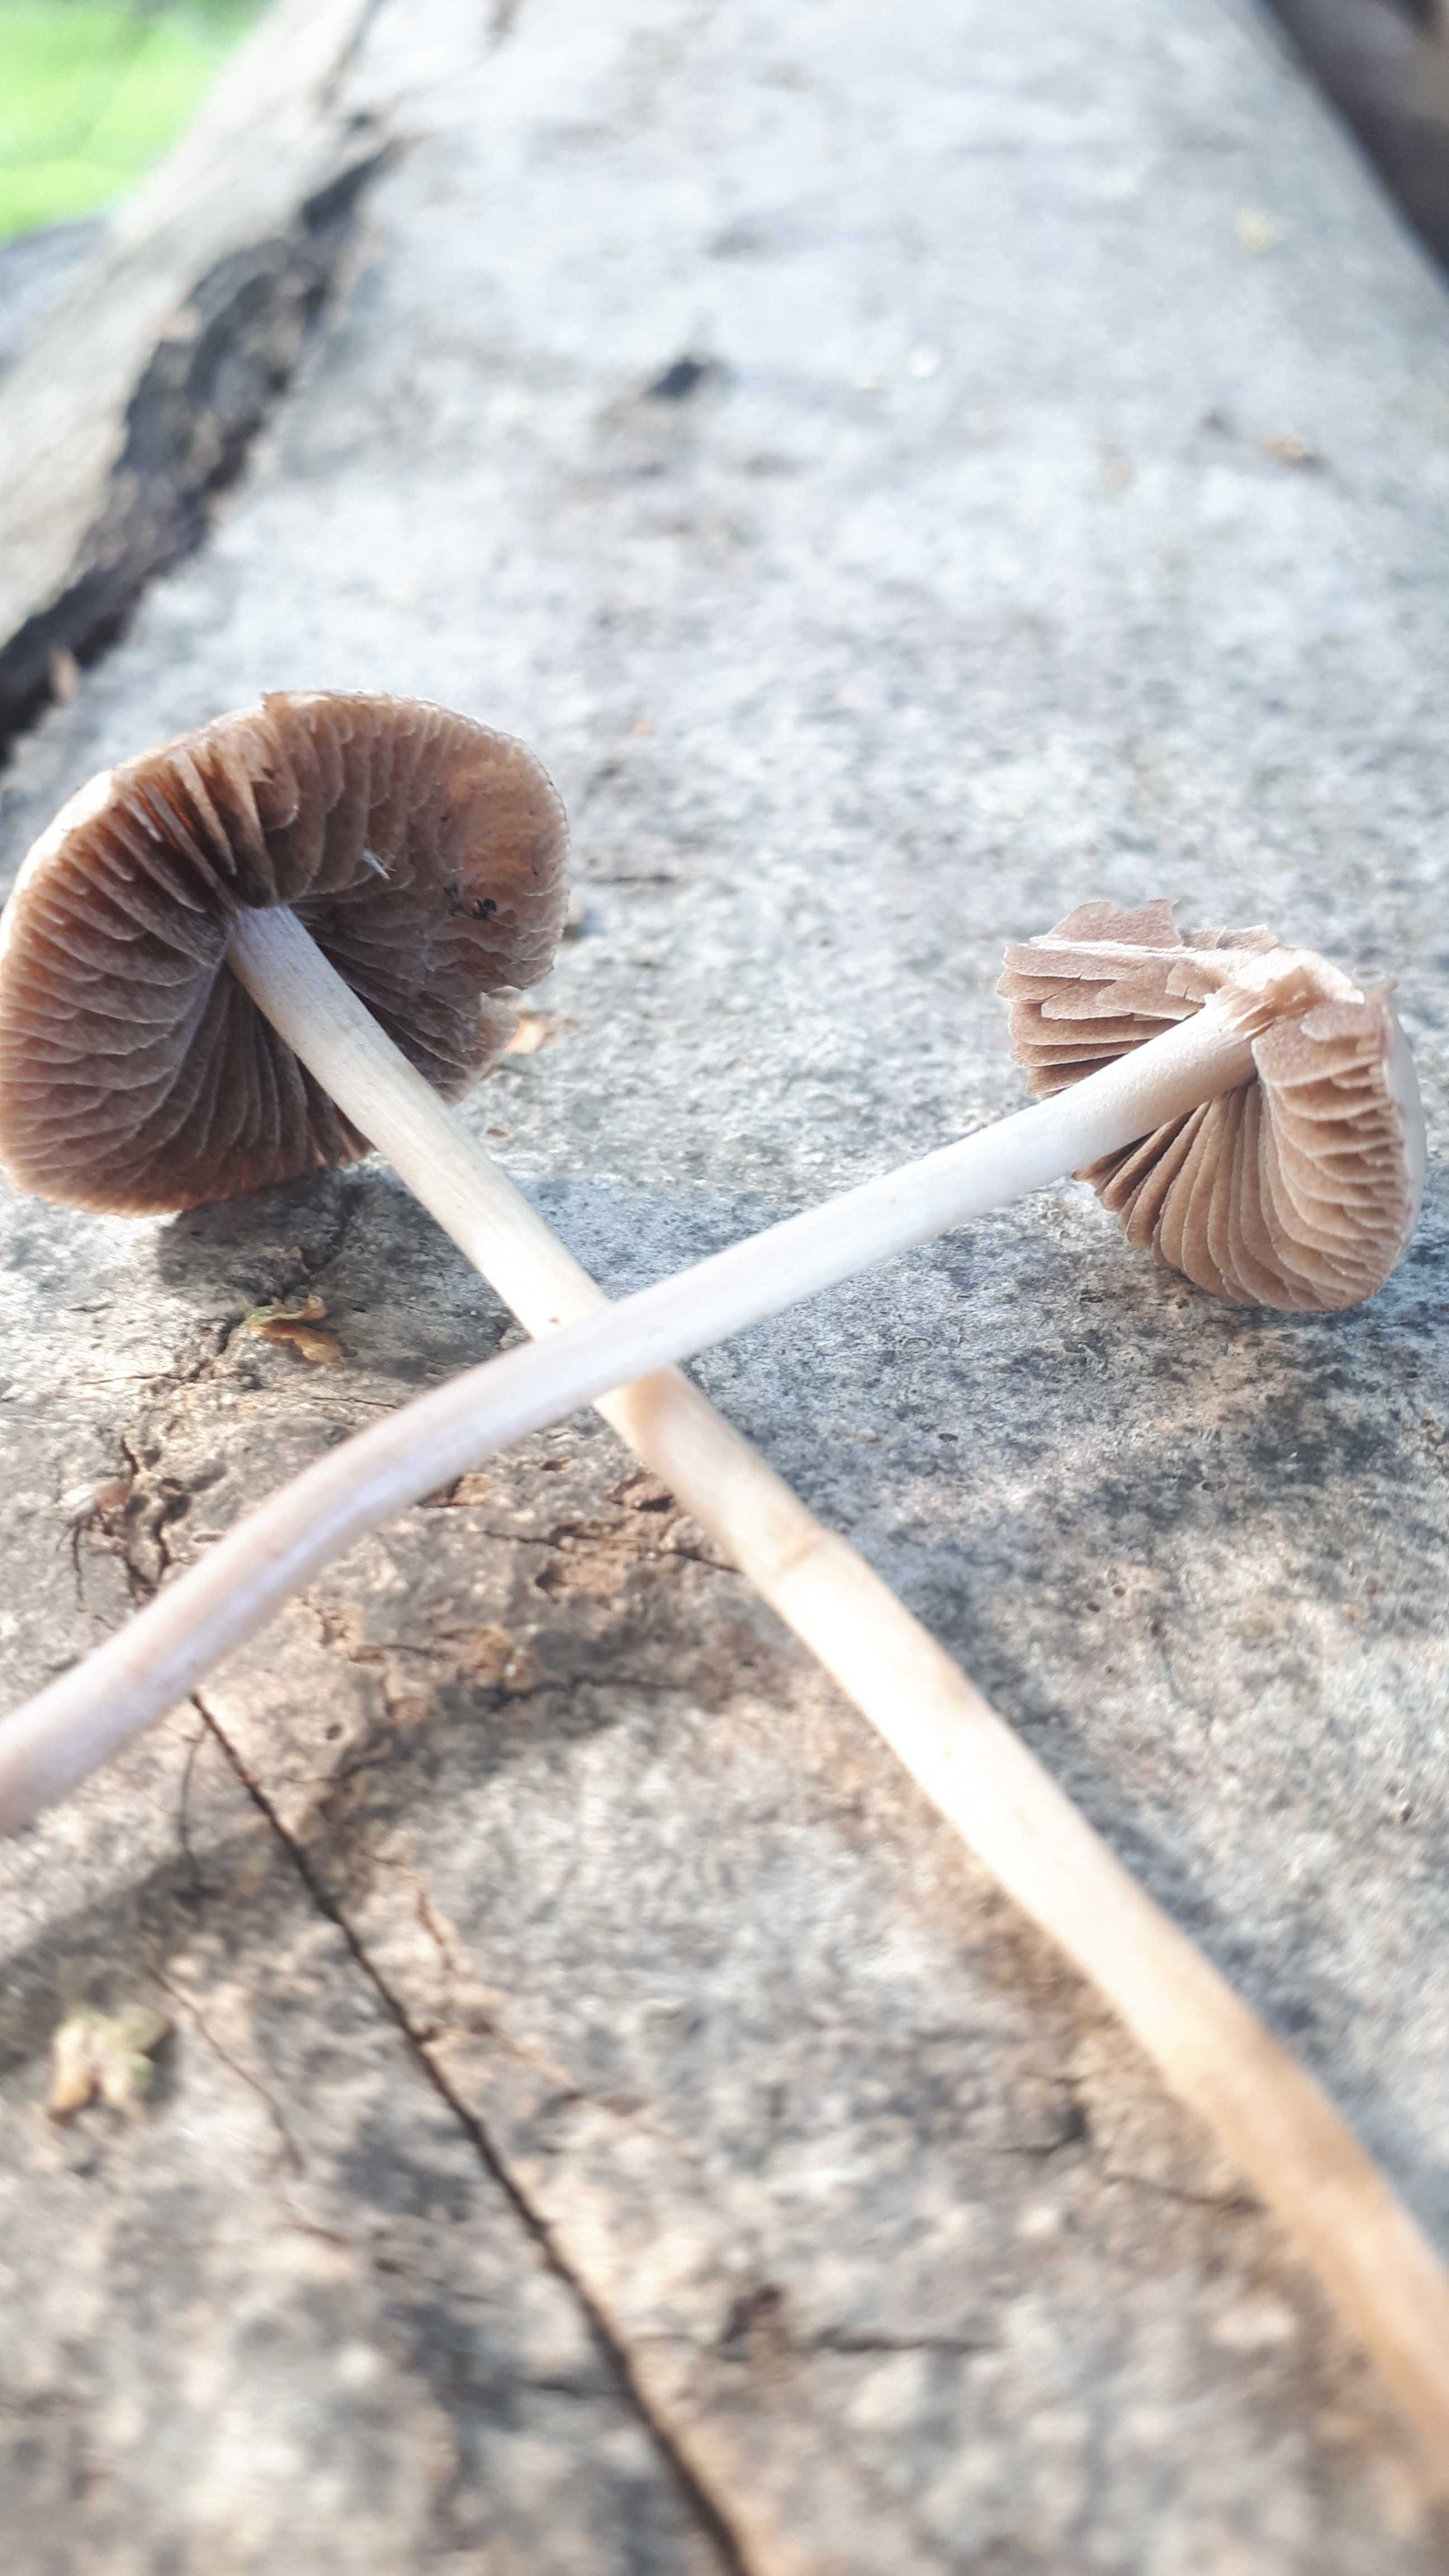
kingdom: Fungi
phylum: Basidiomycota
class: Agaricomycetes
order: Agaricales
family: Bolbitiaceae
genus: Panaeolina
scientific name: Panaeolina foenisecii
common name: høslætsvamp
